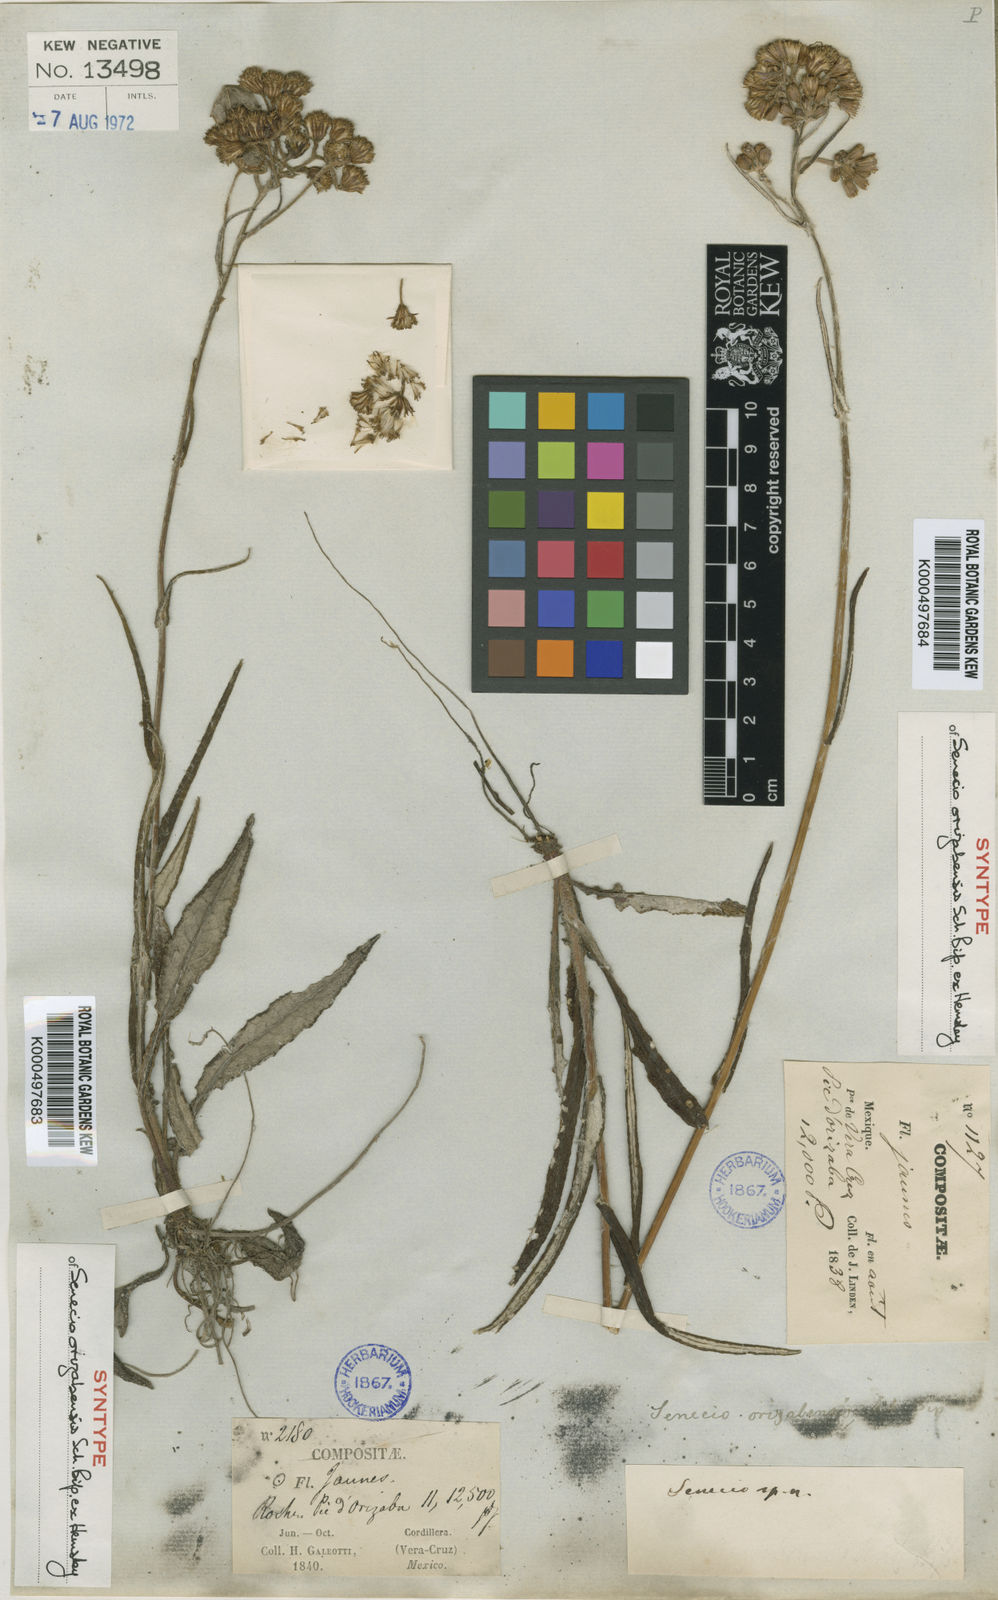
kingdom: Plantae
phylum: Tracheophyta
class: Magnoliopsida
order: Asterales
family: Asteraceae
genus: Senecio
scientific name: Senecio orizabensis
